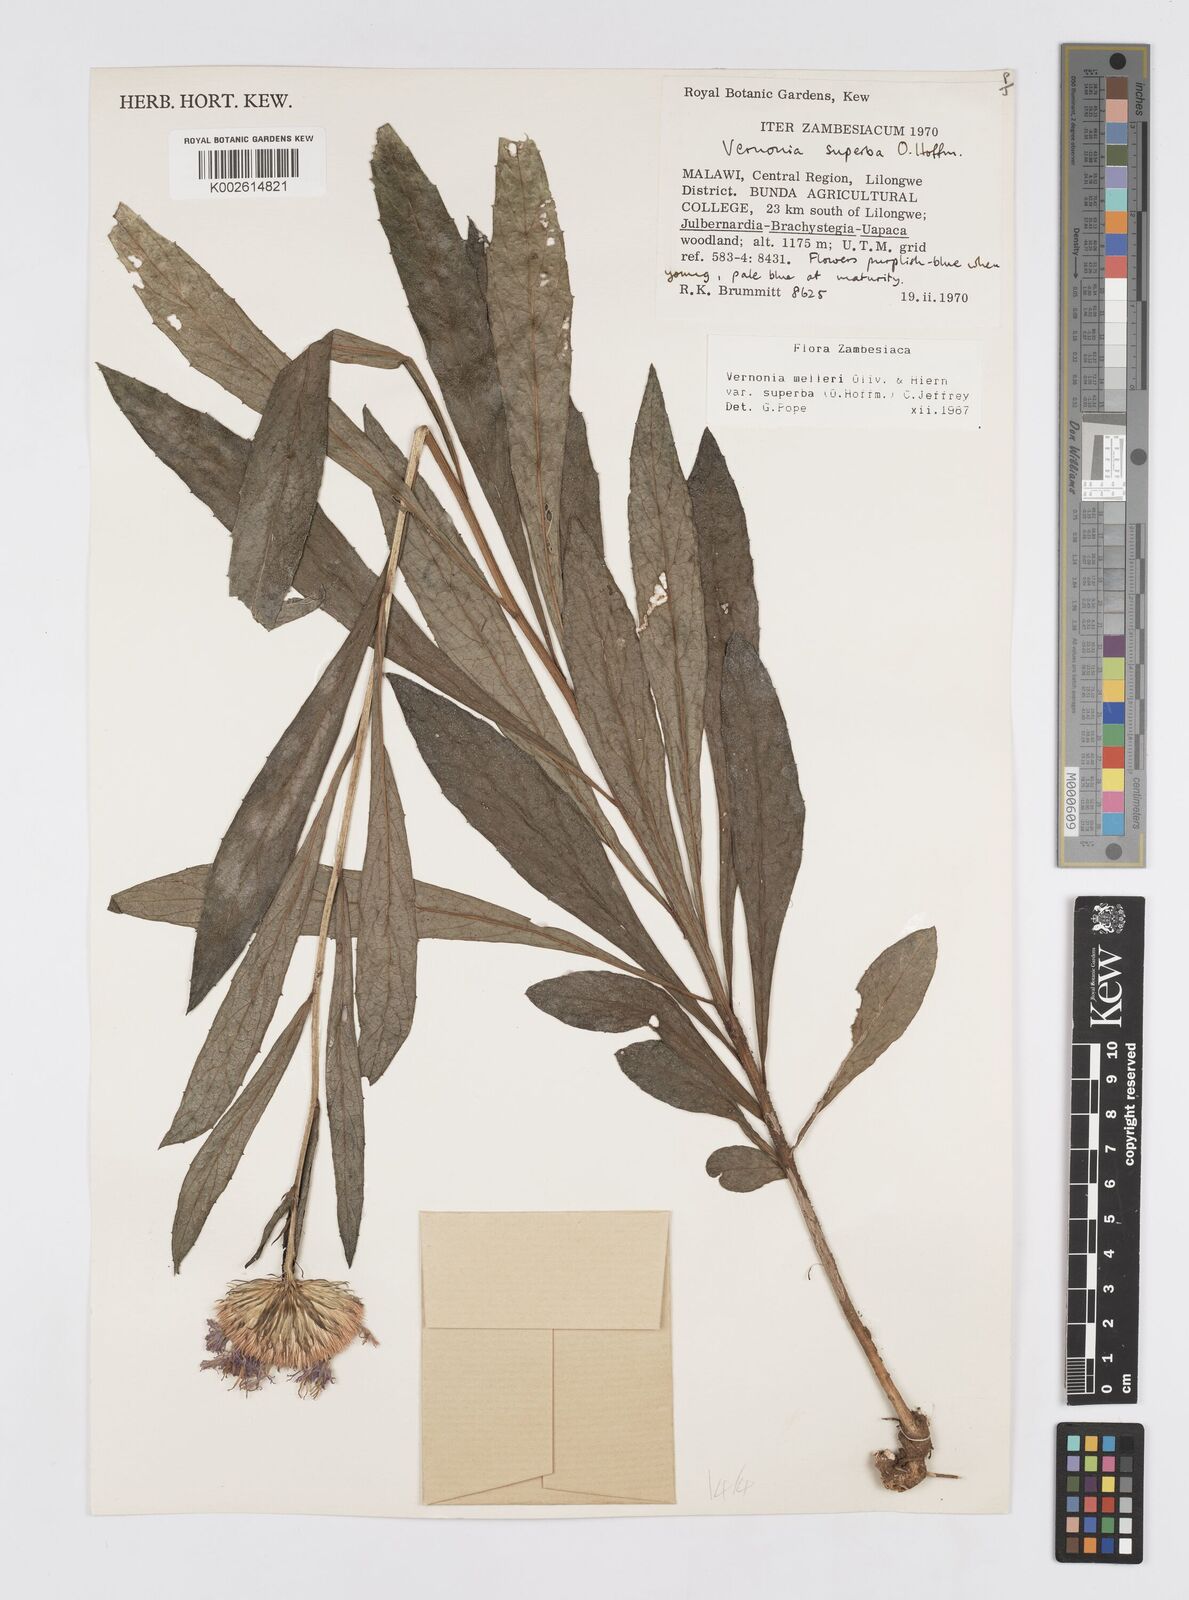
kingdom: Plantae
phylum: Tracheophyta
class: Magnoliopsida
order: Asterales
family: Asteraceae
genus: Linzia
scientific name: Linzia melleri
